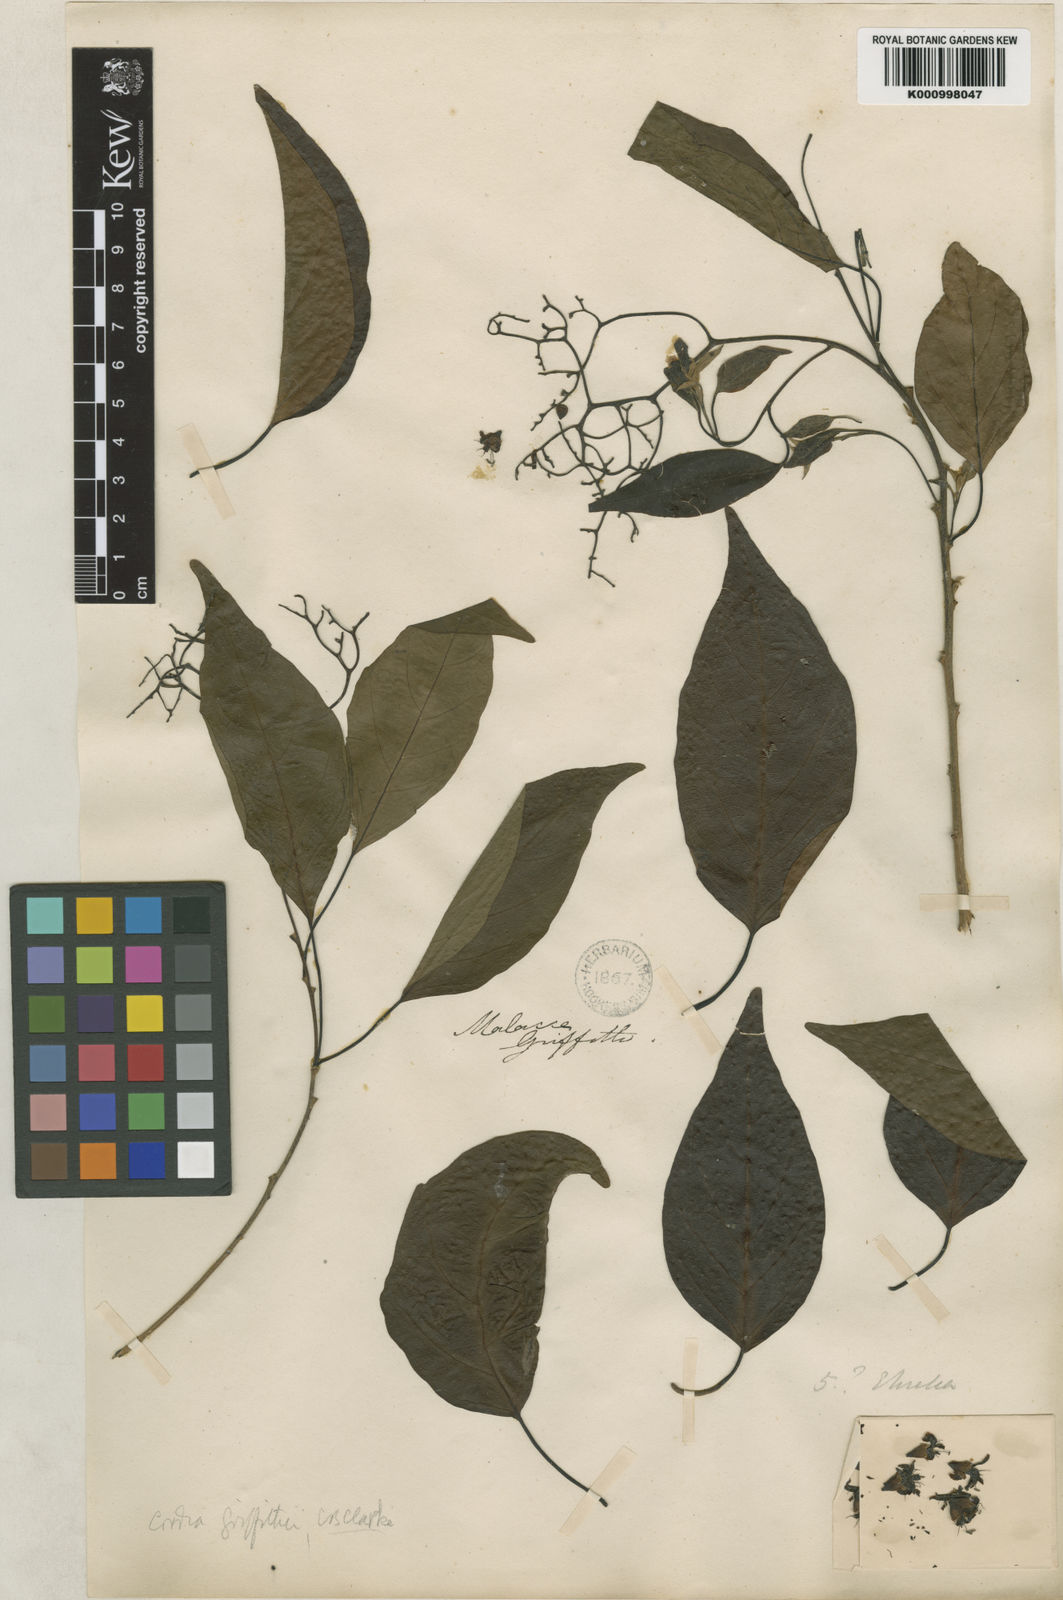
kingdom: Plantae
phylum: Tracheophyta
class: Magnoliopsida
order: Boraginales
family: Cordiaceae
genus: Cordia
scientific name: Cordia dichotoma
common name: Fragrant manjack
